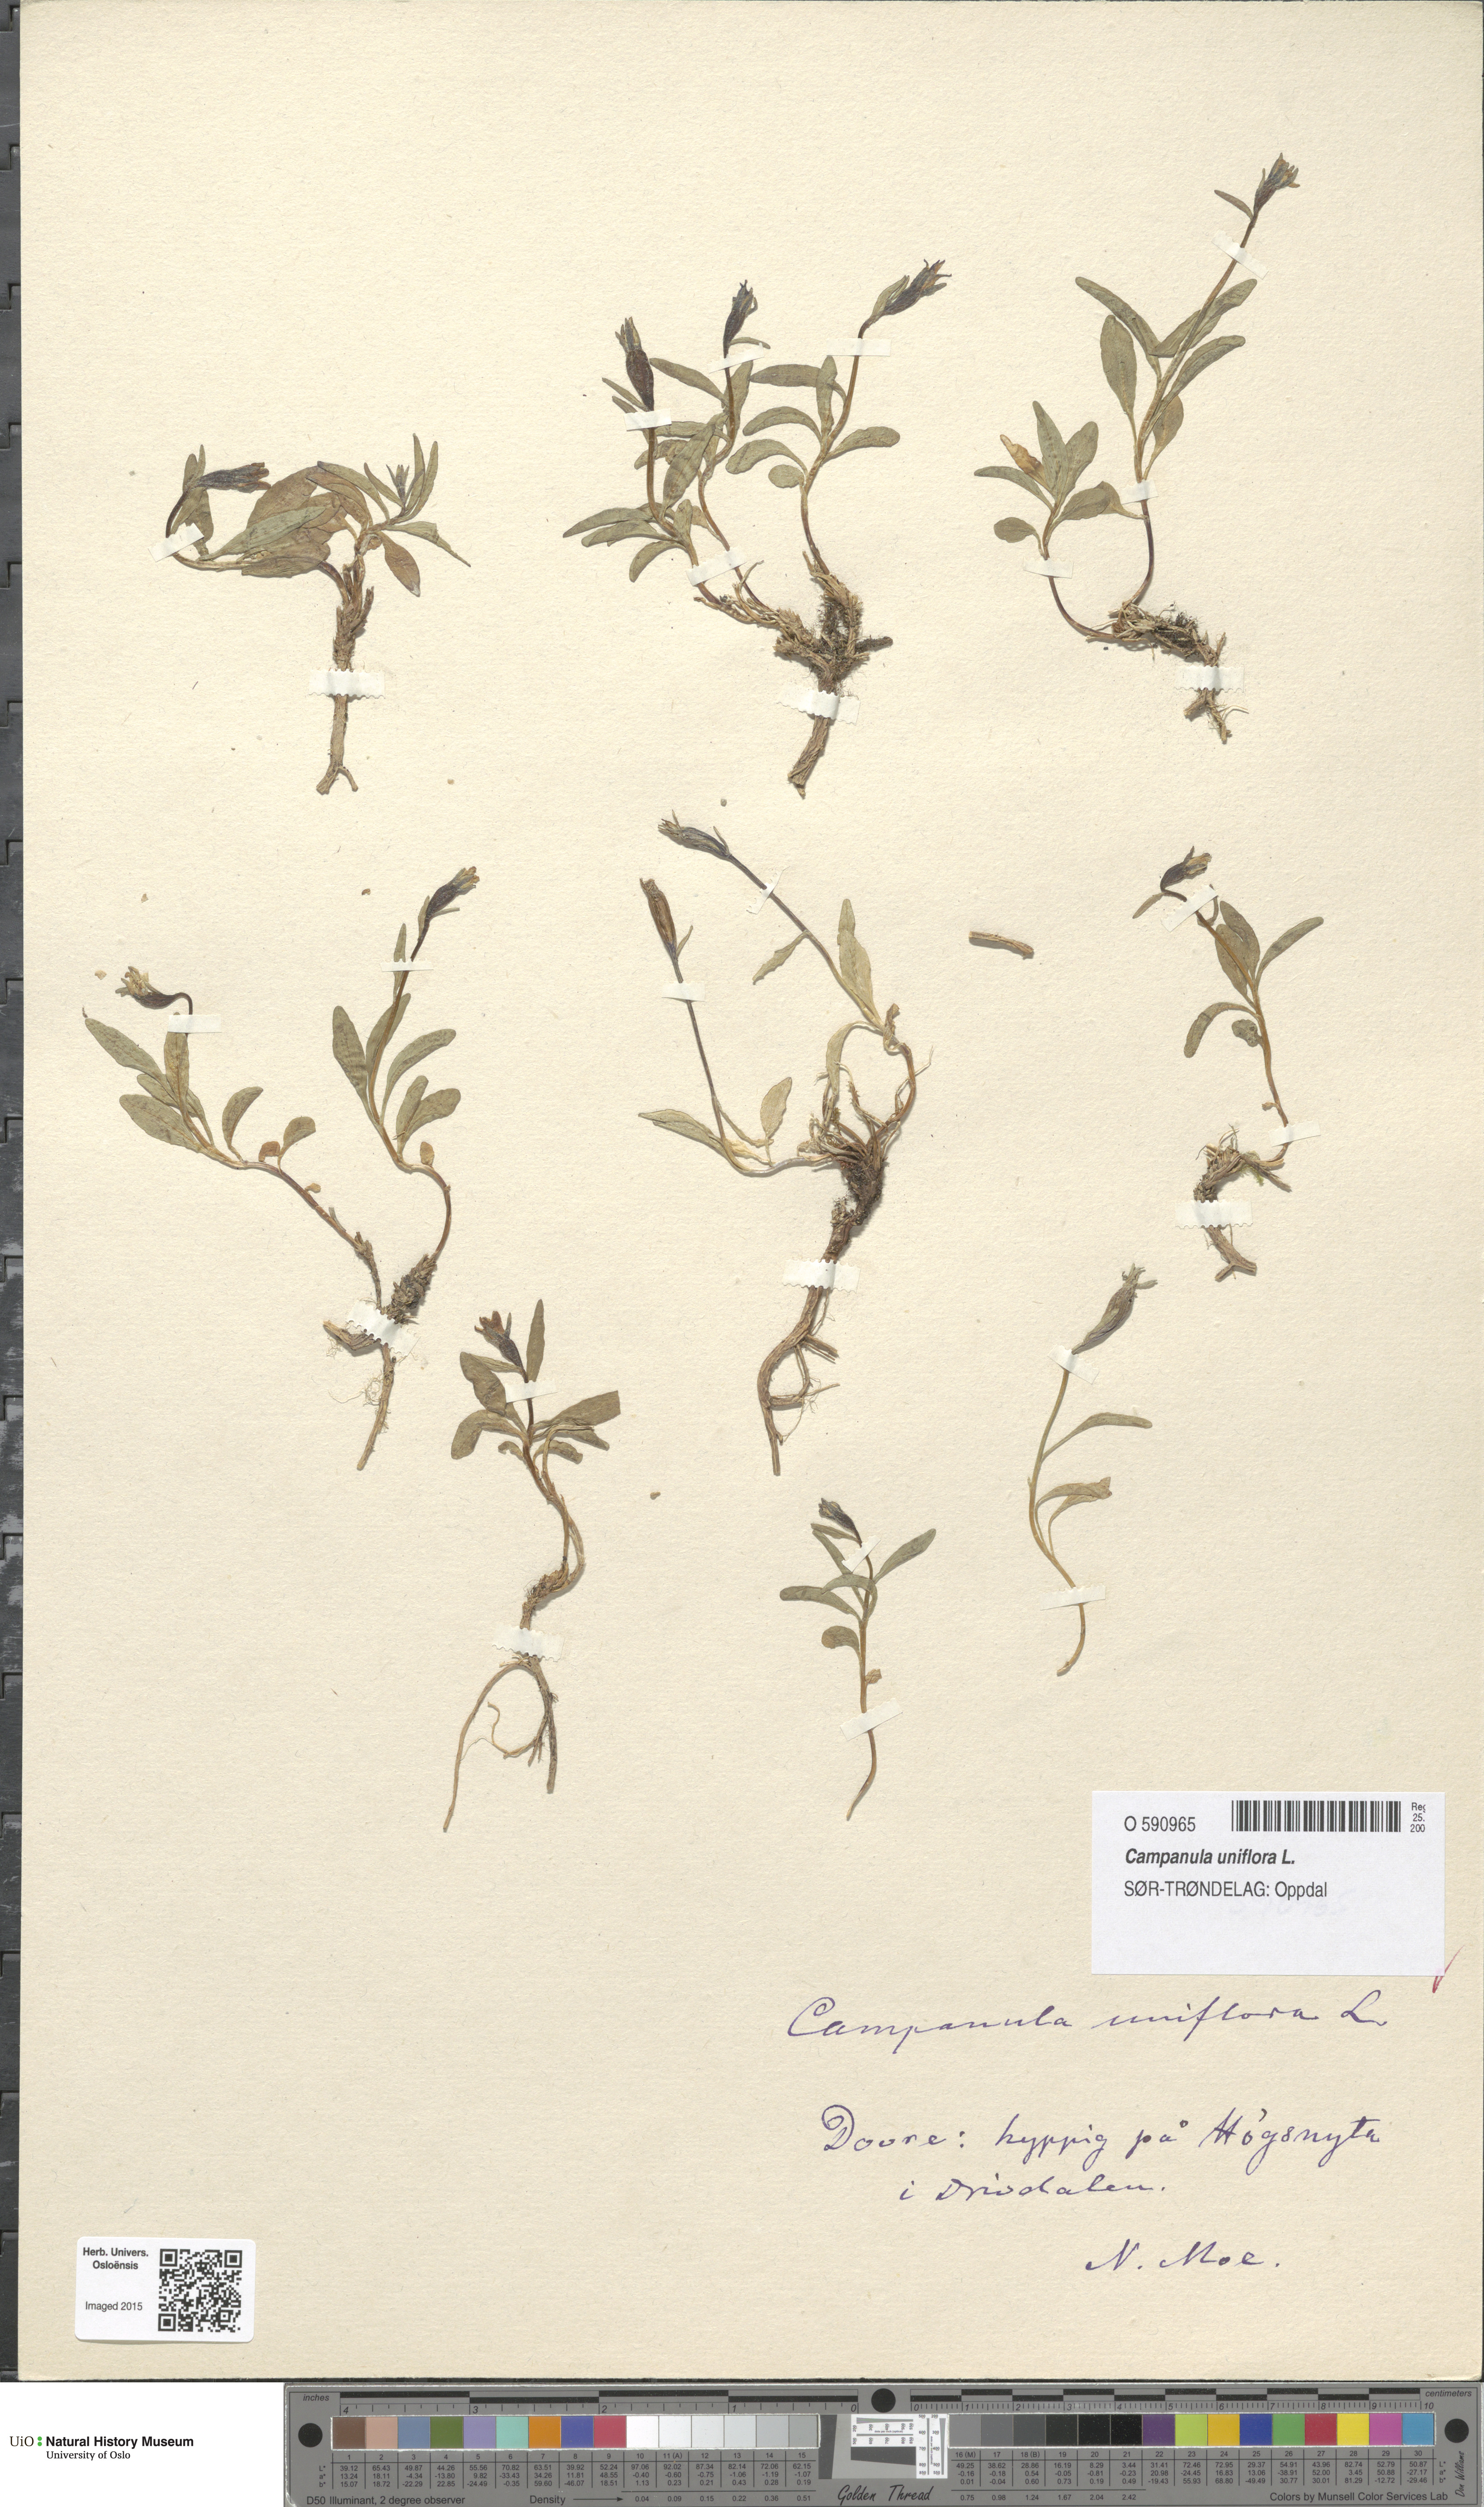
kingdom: Plantae
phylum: Tracheophyta
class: Magnoliopsida
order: Asterales
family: Campanulaceae
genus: Melanocalyx
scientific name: Melanocalyx uniflora
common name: Alpine harebell
